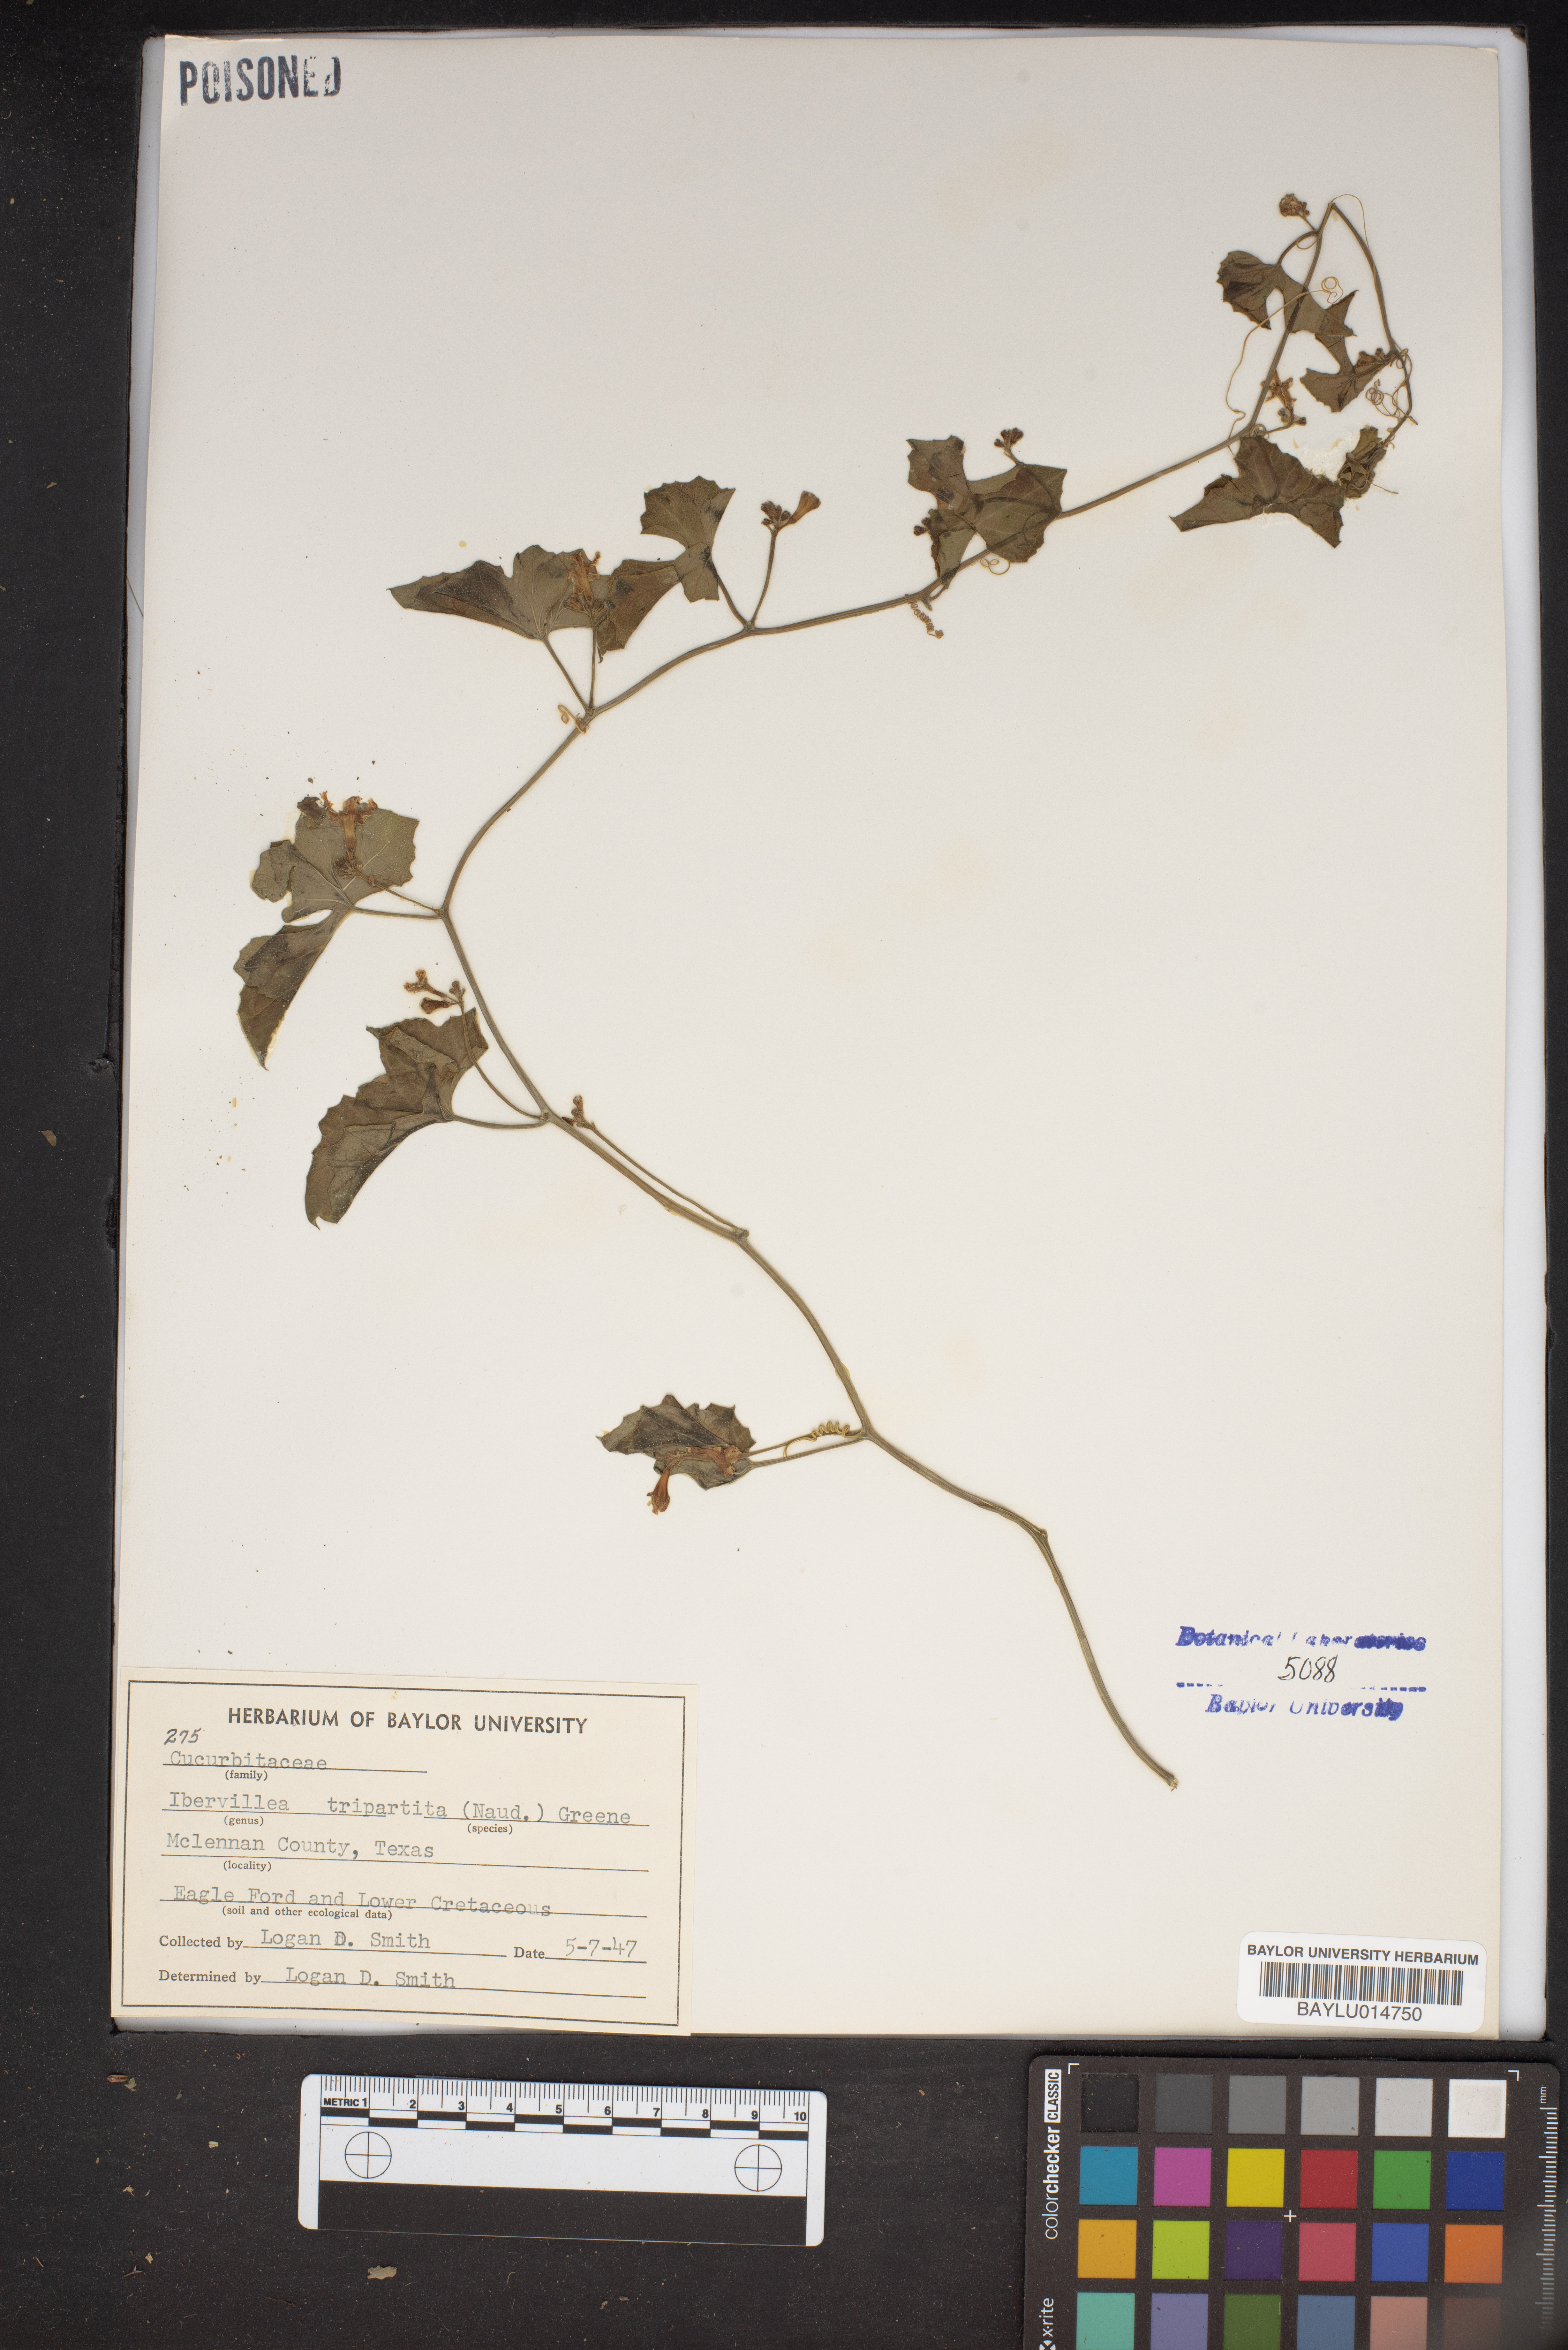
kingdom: Plantae
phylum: Tracheophyta
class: Magnoliopsida
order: Cucurbitales
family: Cucurbitaceae
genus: Ibervillea
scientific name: Ibervillea lindheimeri
